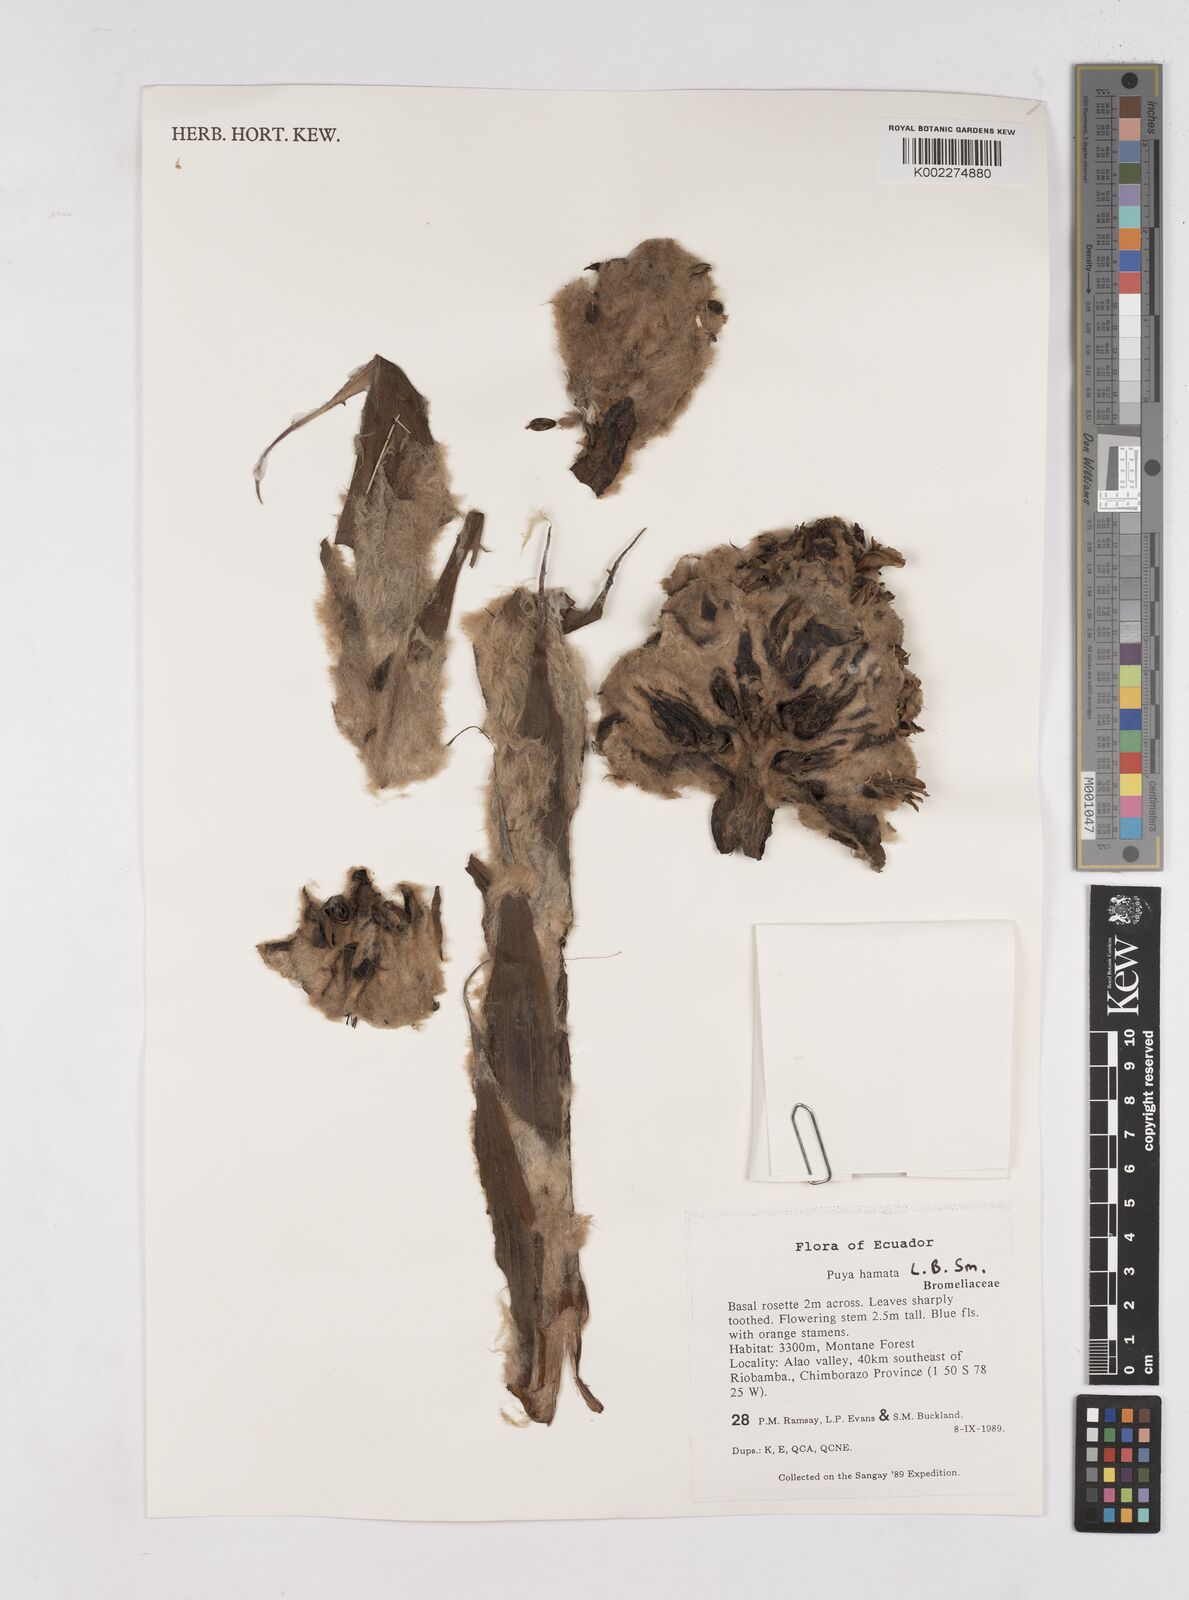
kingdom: Plantae
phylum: Tracheophyta
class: Liliopsida
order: Poales
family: Bromeliaceae
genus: Puya
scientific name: Puya hamata
